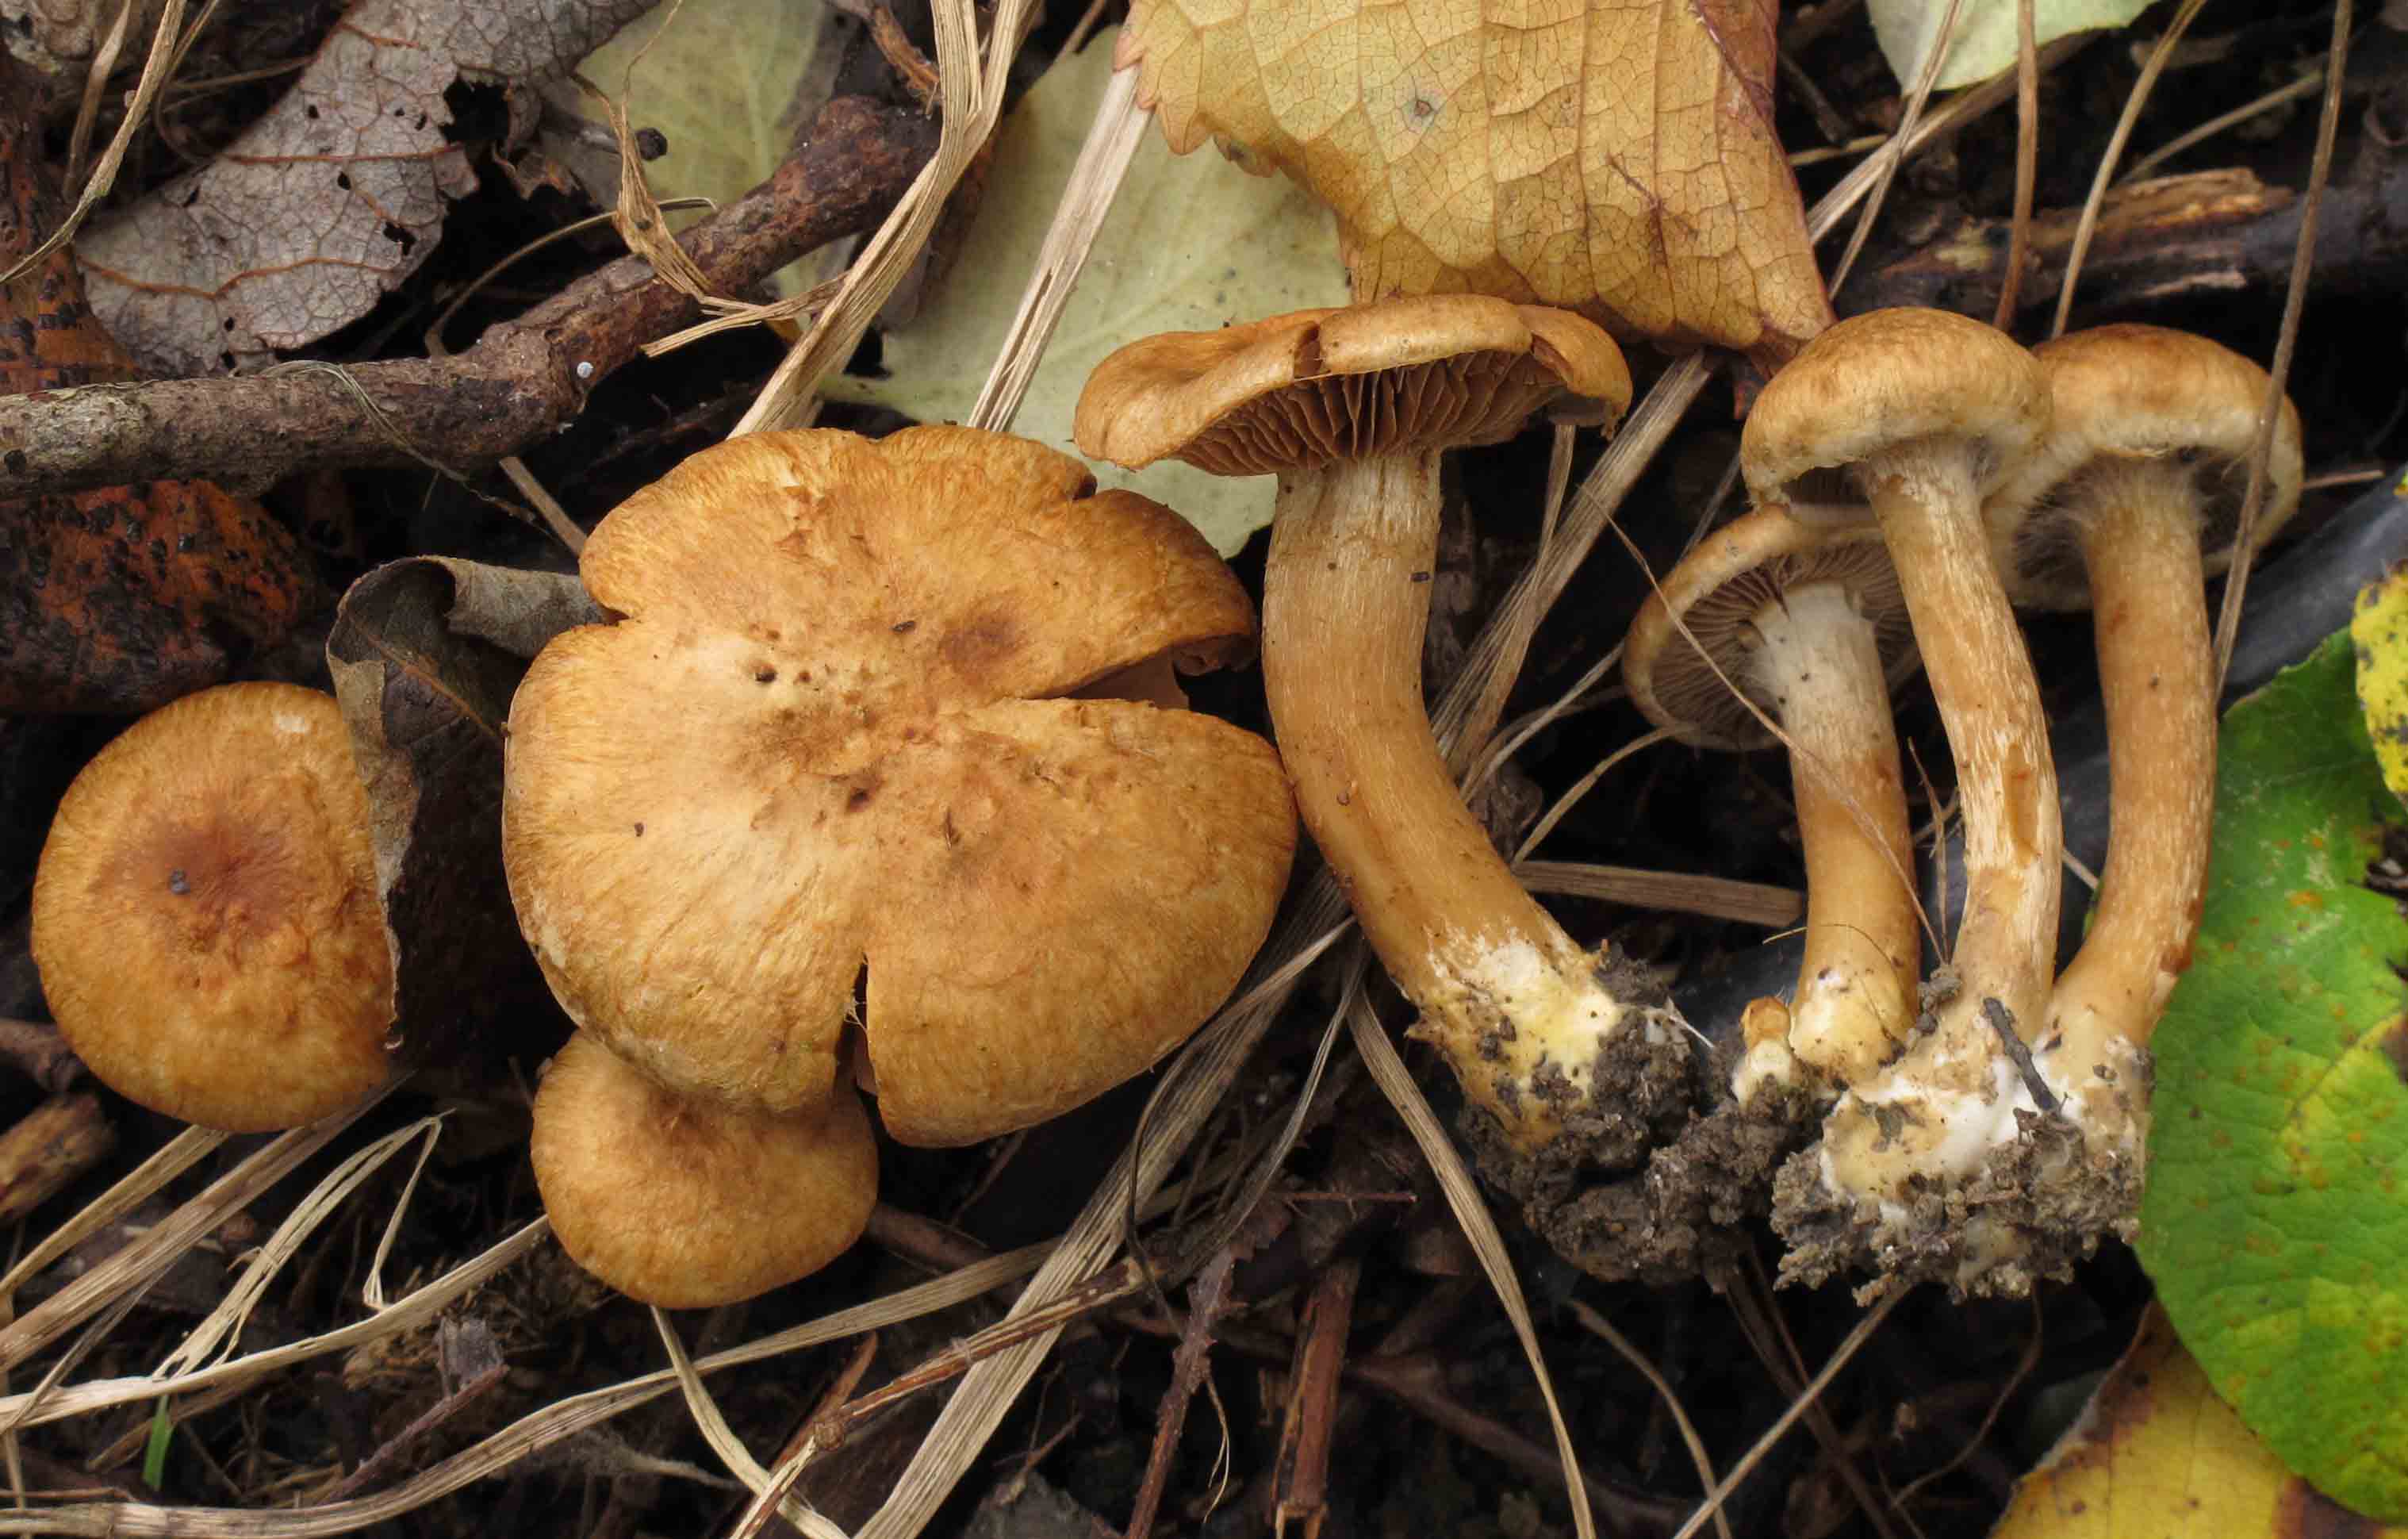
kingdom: Fungi
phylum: Basidiomycota
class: Agaricomycetes
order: Agaricales
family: Inocybaceae
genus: Inocybe
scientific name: Inocybe dulcamara
